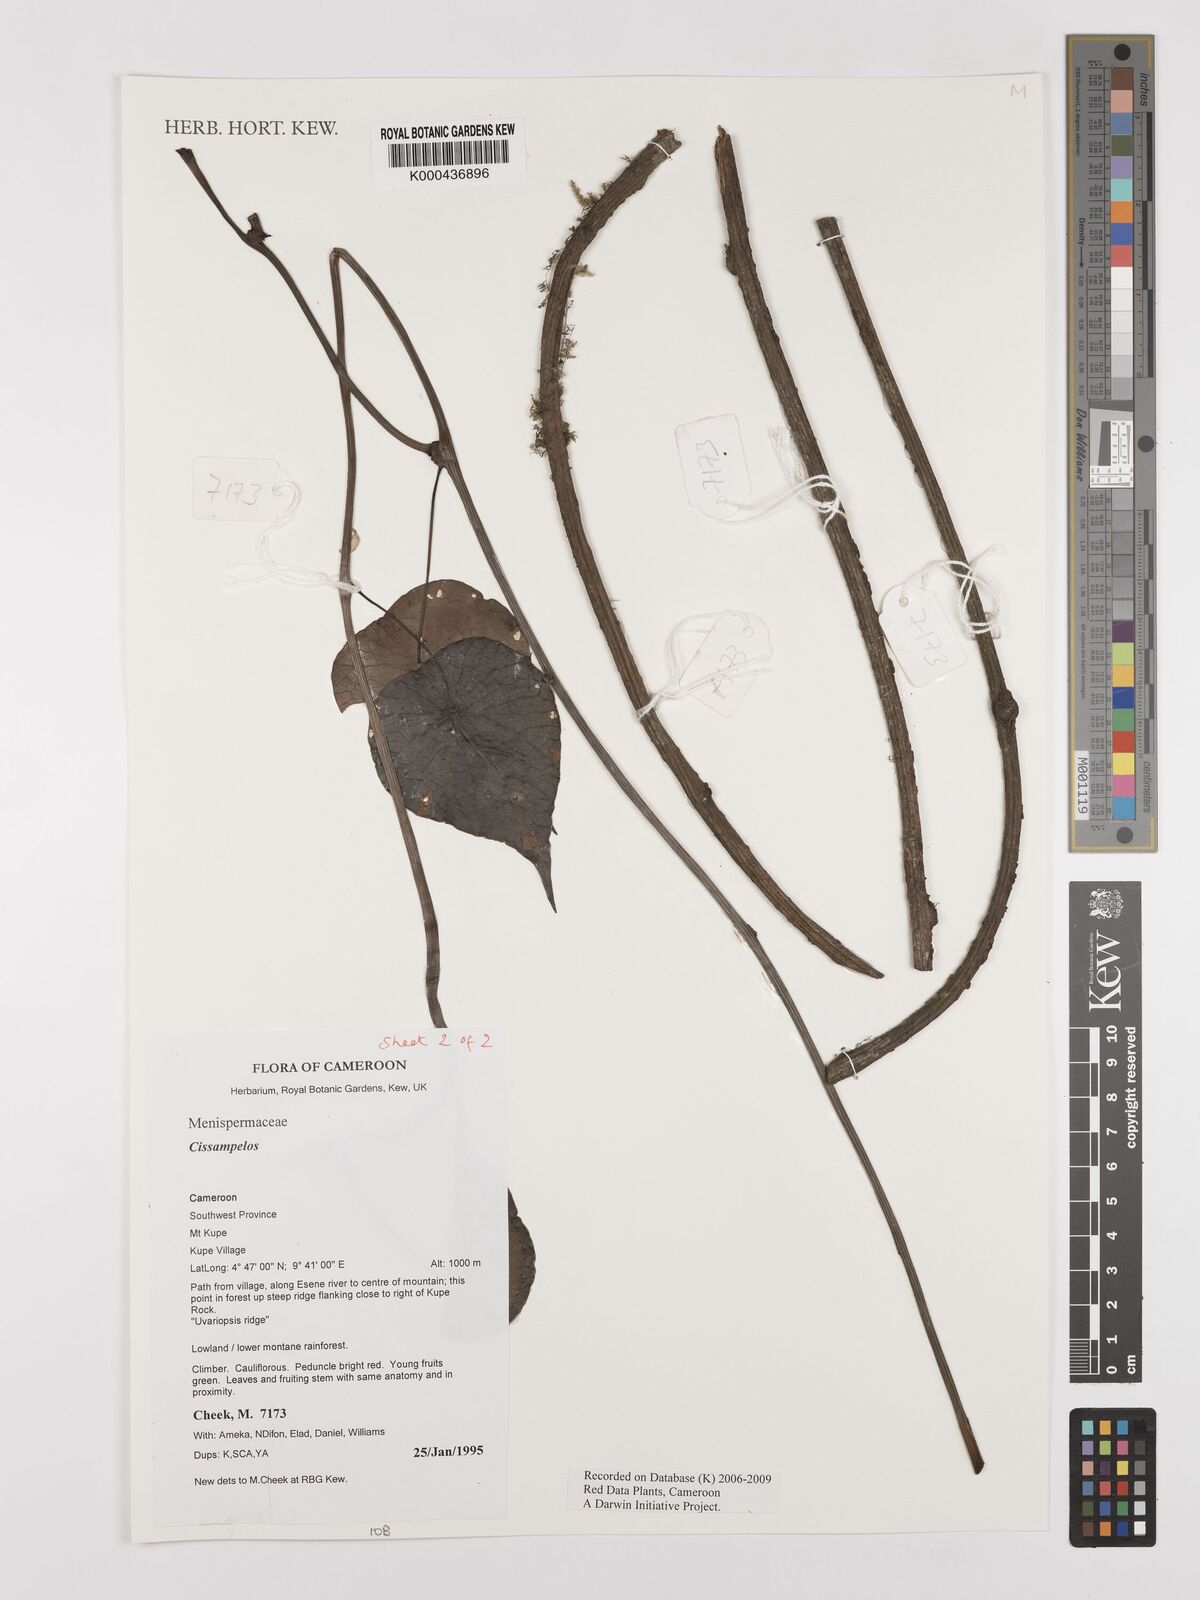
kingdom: Plantae
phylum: Tracheophyta
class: Magnoliopsida
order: Ranunculales
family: Menispermaceae
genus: Cissampelos
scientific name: Cissampelos
